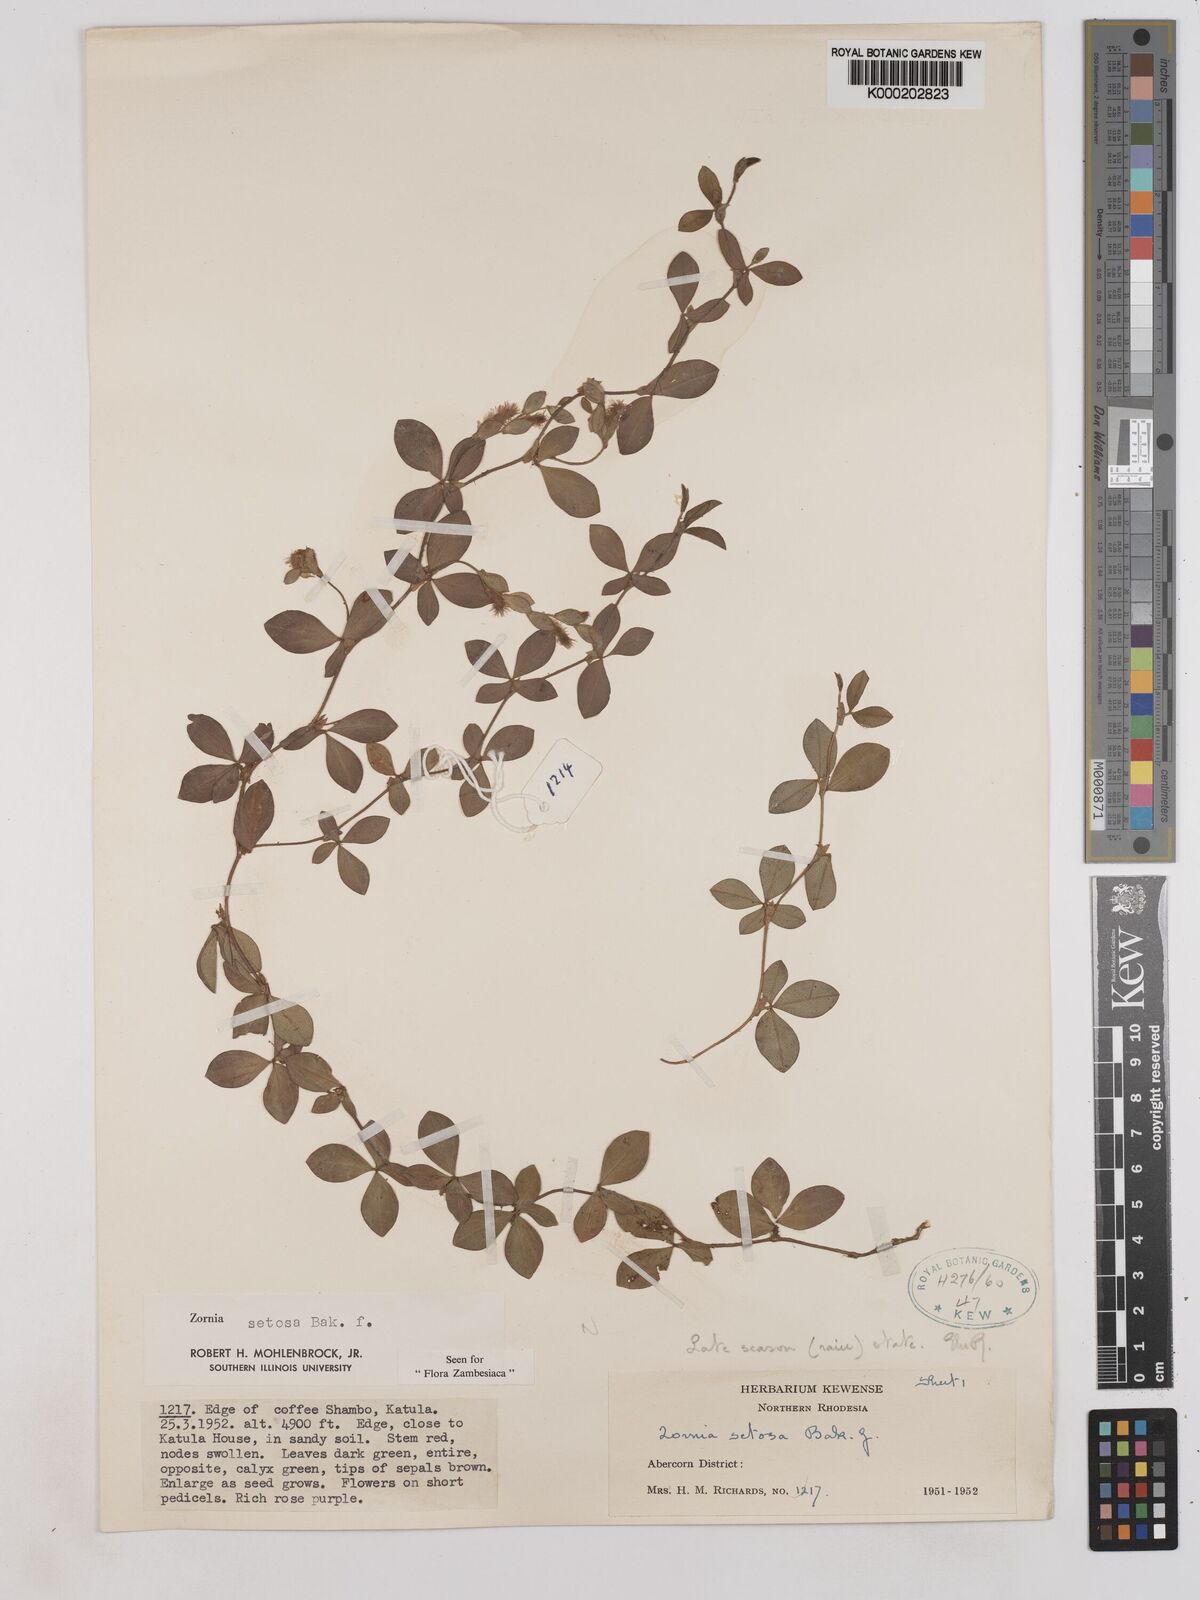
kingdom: Plantae
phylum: Tracheophyta
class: Magnoliopsida
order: Fabales
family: Fabaceae
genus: Zornia
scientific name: Zornia setosa
